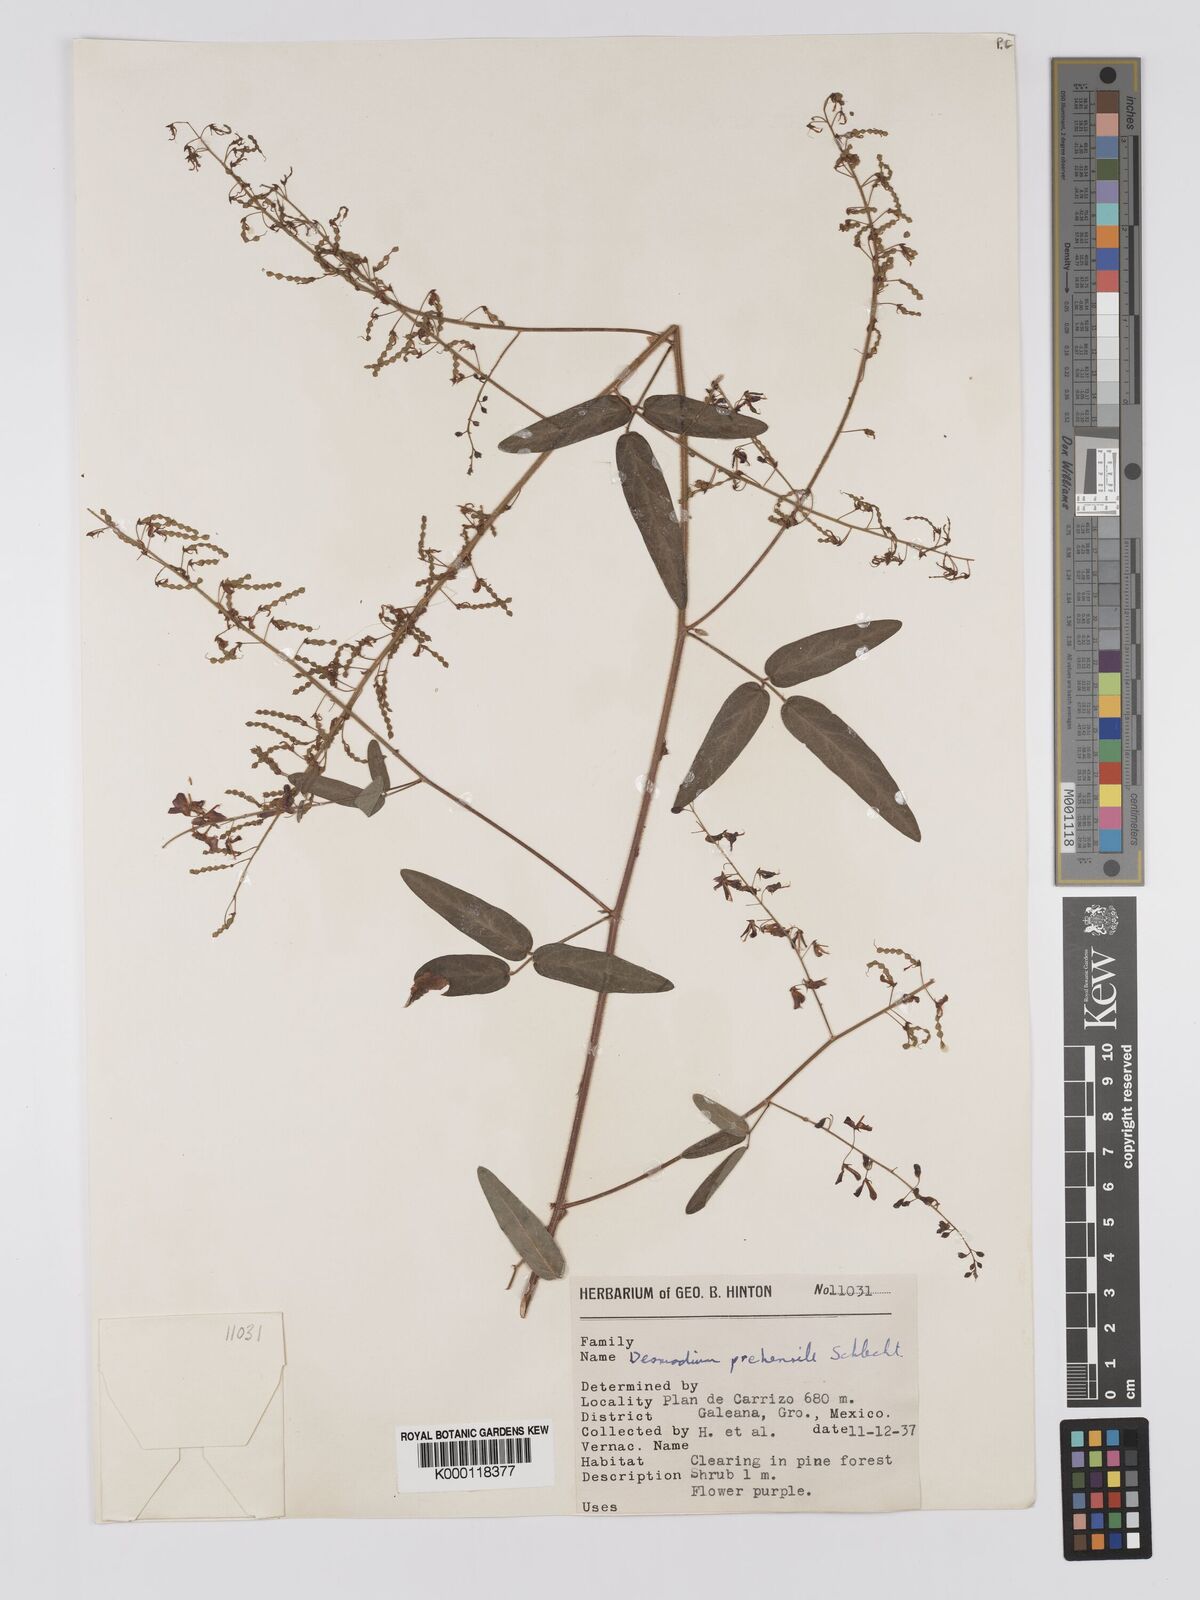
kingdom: Plantae
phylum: Tracheophyta
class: Magnoliopsida
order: Fabales
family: Fabaceae
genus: Desmodium
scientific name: Desmodium prehensile
